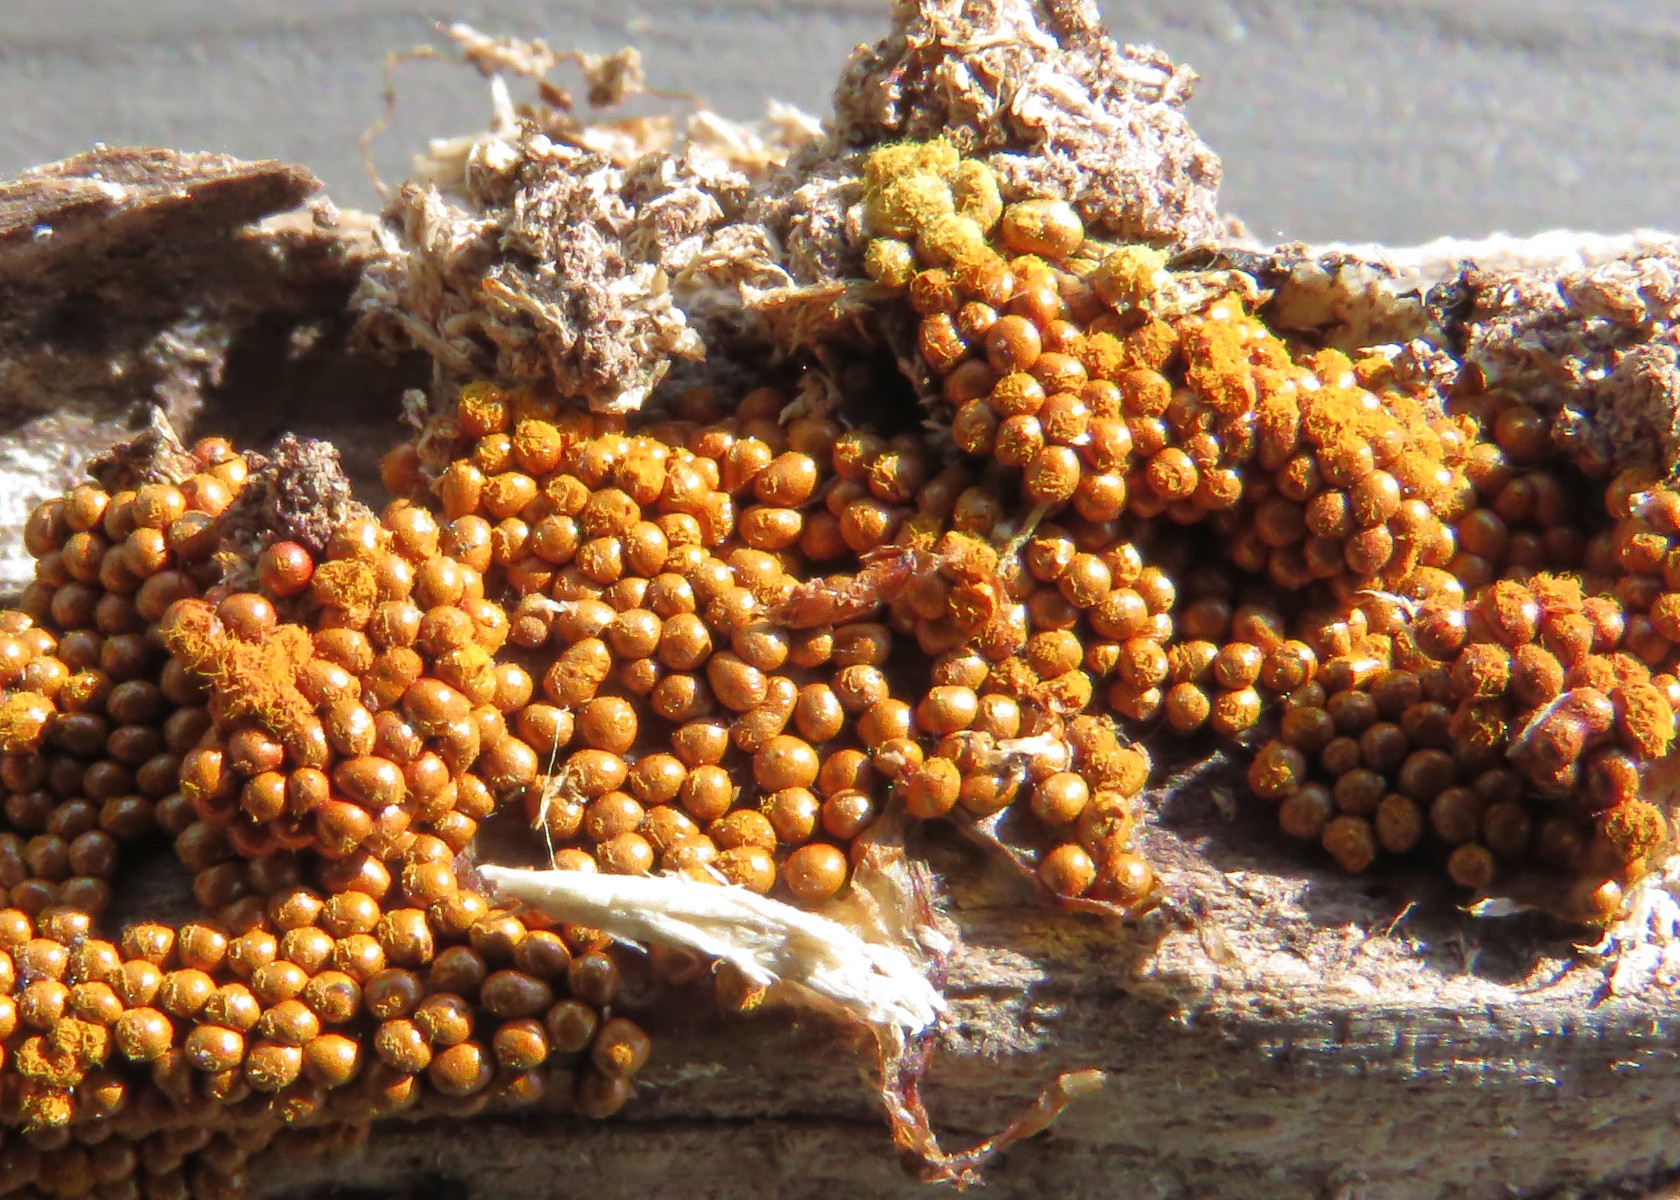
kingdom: Protozoa
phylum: Mycetozoa
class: Myxomycetes
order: Trichiales
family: Trichiaceae
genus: Trichia
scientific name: Trichia scabra
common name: tæppe-hårbold
